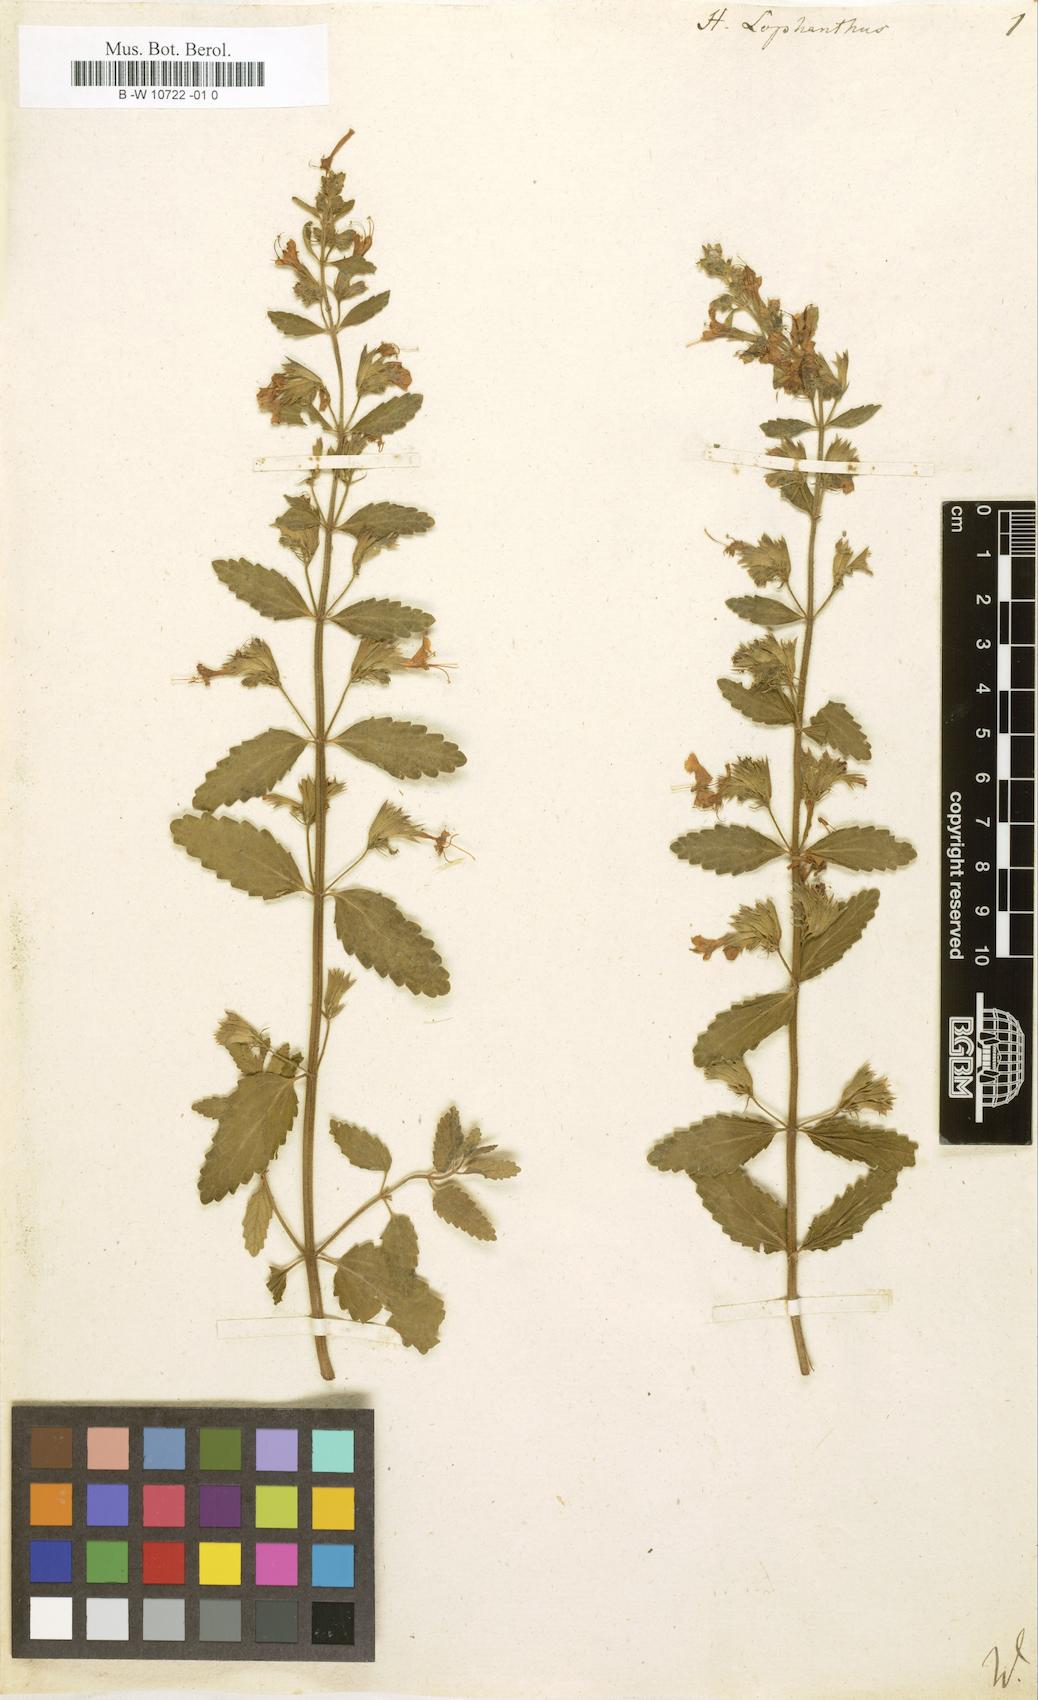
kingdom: Plantae
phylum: Tracheophyta
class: Magnoliopsida
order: Lamiales
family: Lamiaceae
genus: Nepeta
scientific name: Nepeta lophanthus
